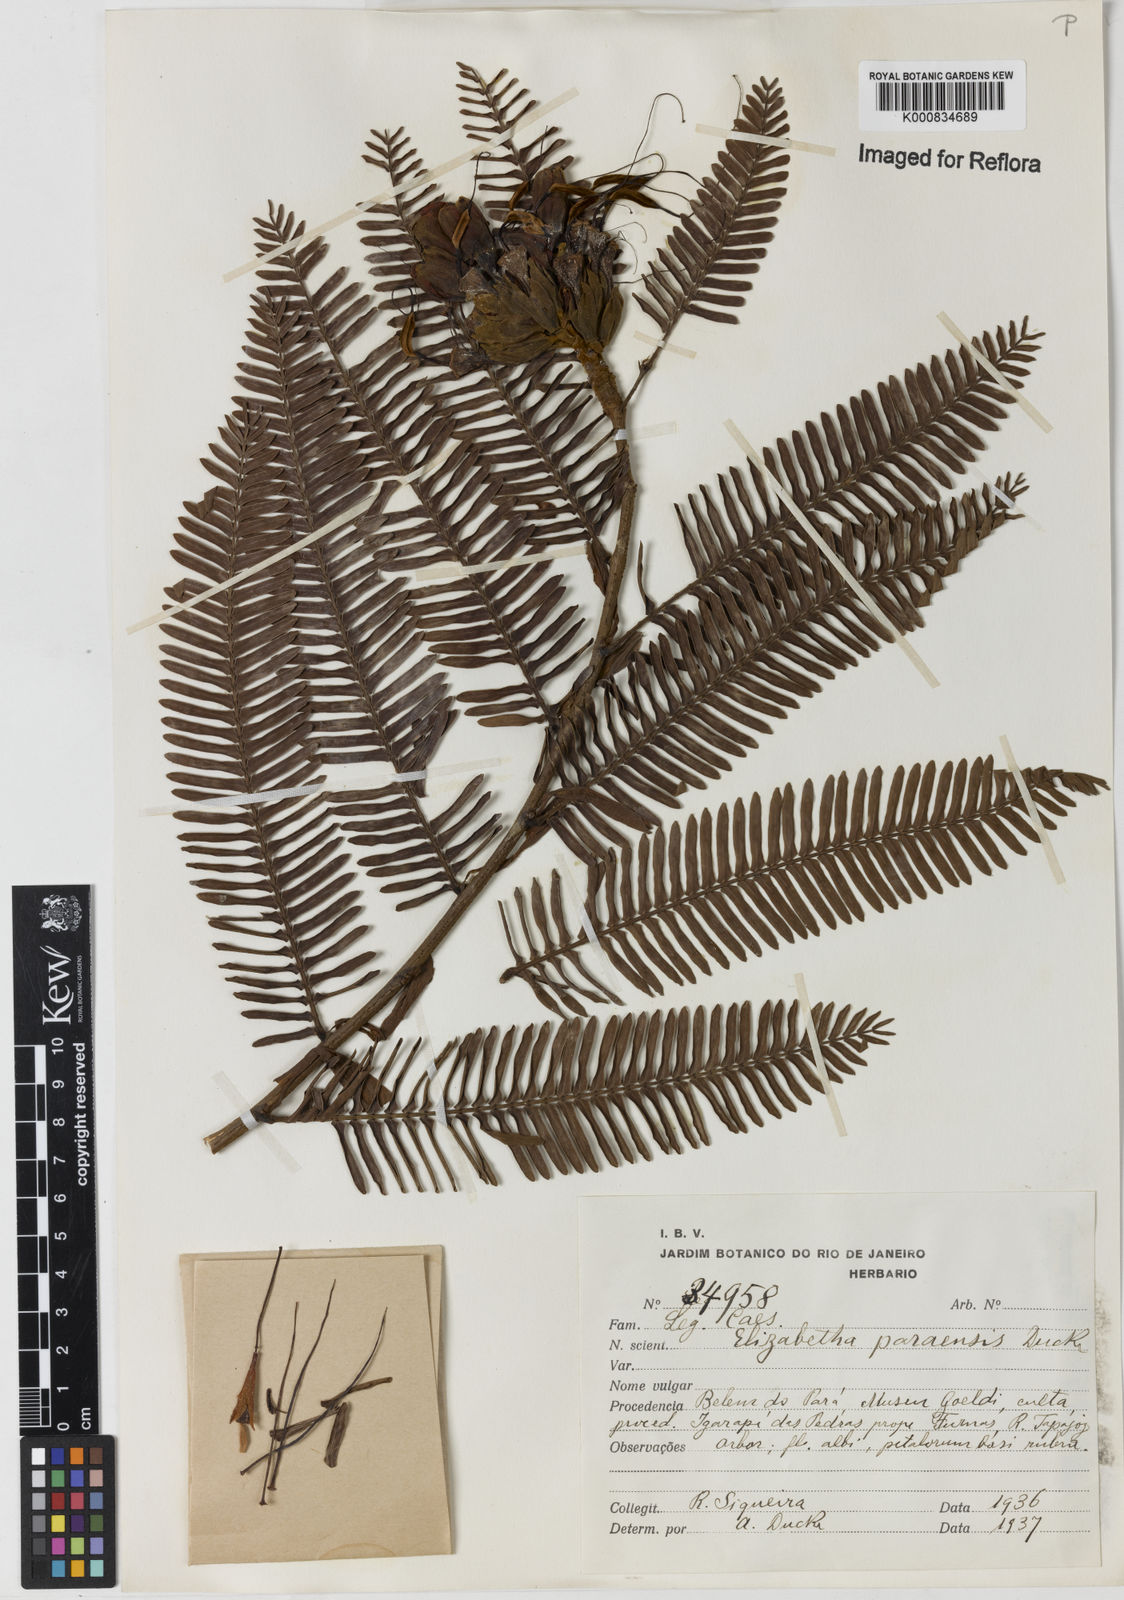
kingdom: Plantae
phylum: Tracheophyta
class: Magnoliopsida
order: Fabales
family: Fabaceae
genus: Paloue
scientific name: Paloue paraensis
